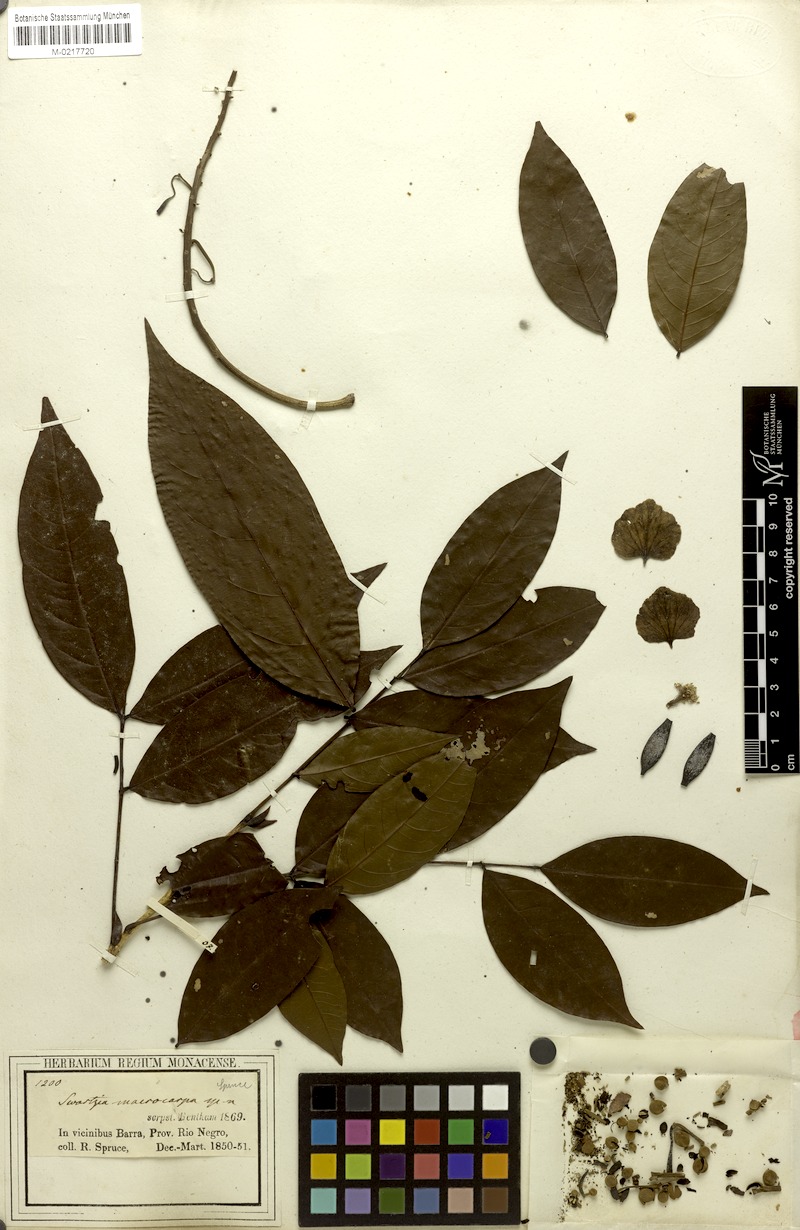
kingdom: Plantae
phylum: Tracheophyta
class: Magnoliopsida
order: Fabales
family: Fabaceae
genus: Swartzia
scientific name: Swartzia macrocarpa
